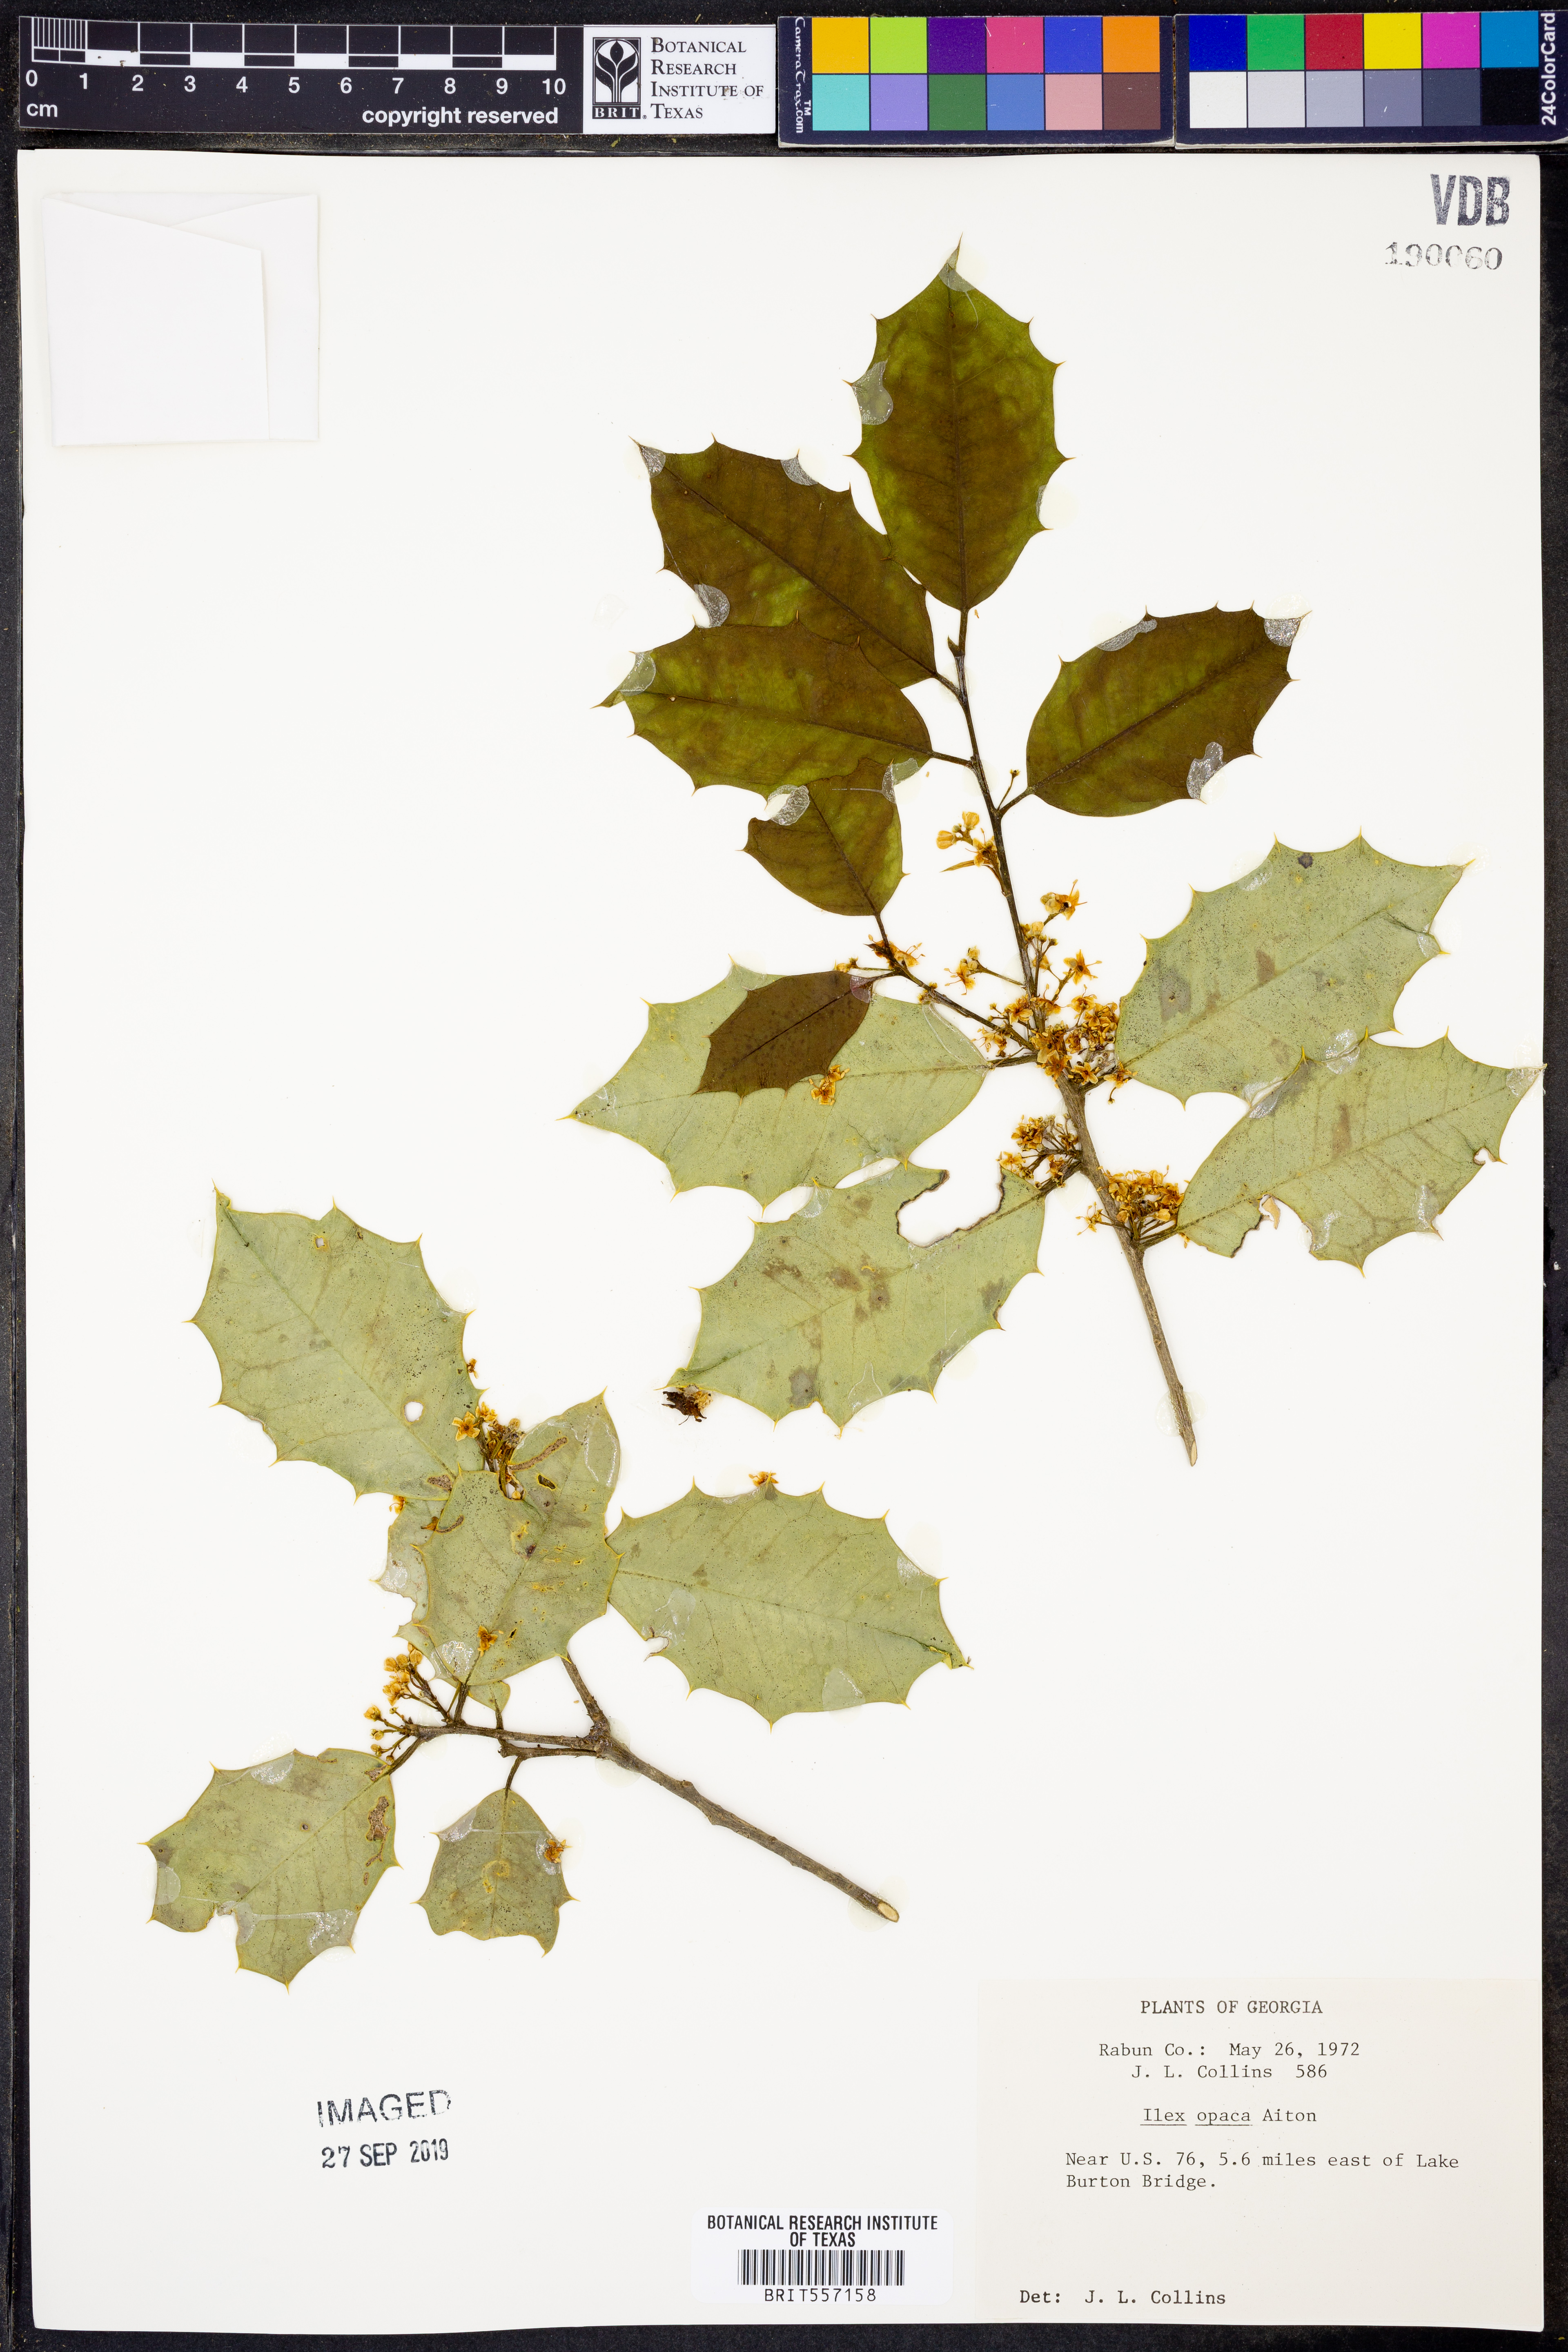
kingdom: Plantae
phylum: Tracheophyta
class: Magnoliopsida
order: Aquifoliales
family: Aquifoliaceae
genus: Ilex
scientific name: Ilex opaca
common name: American holly
